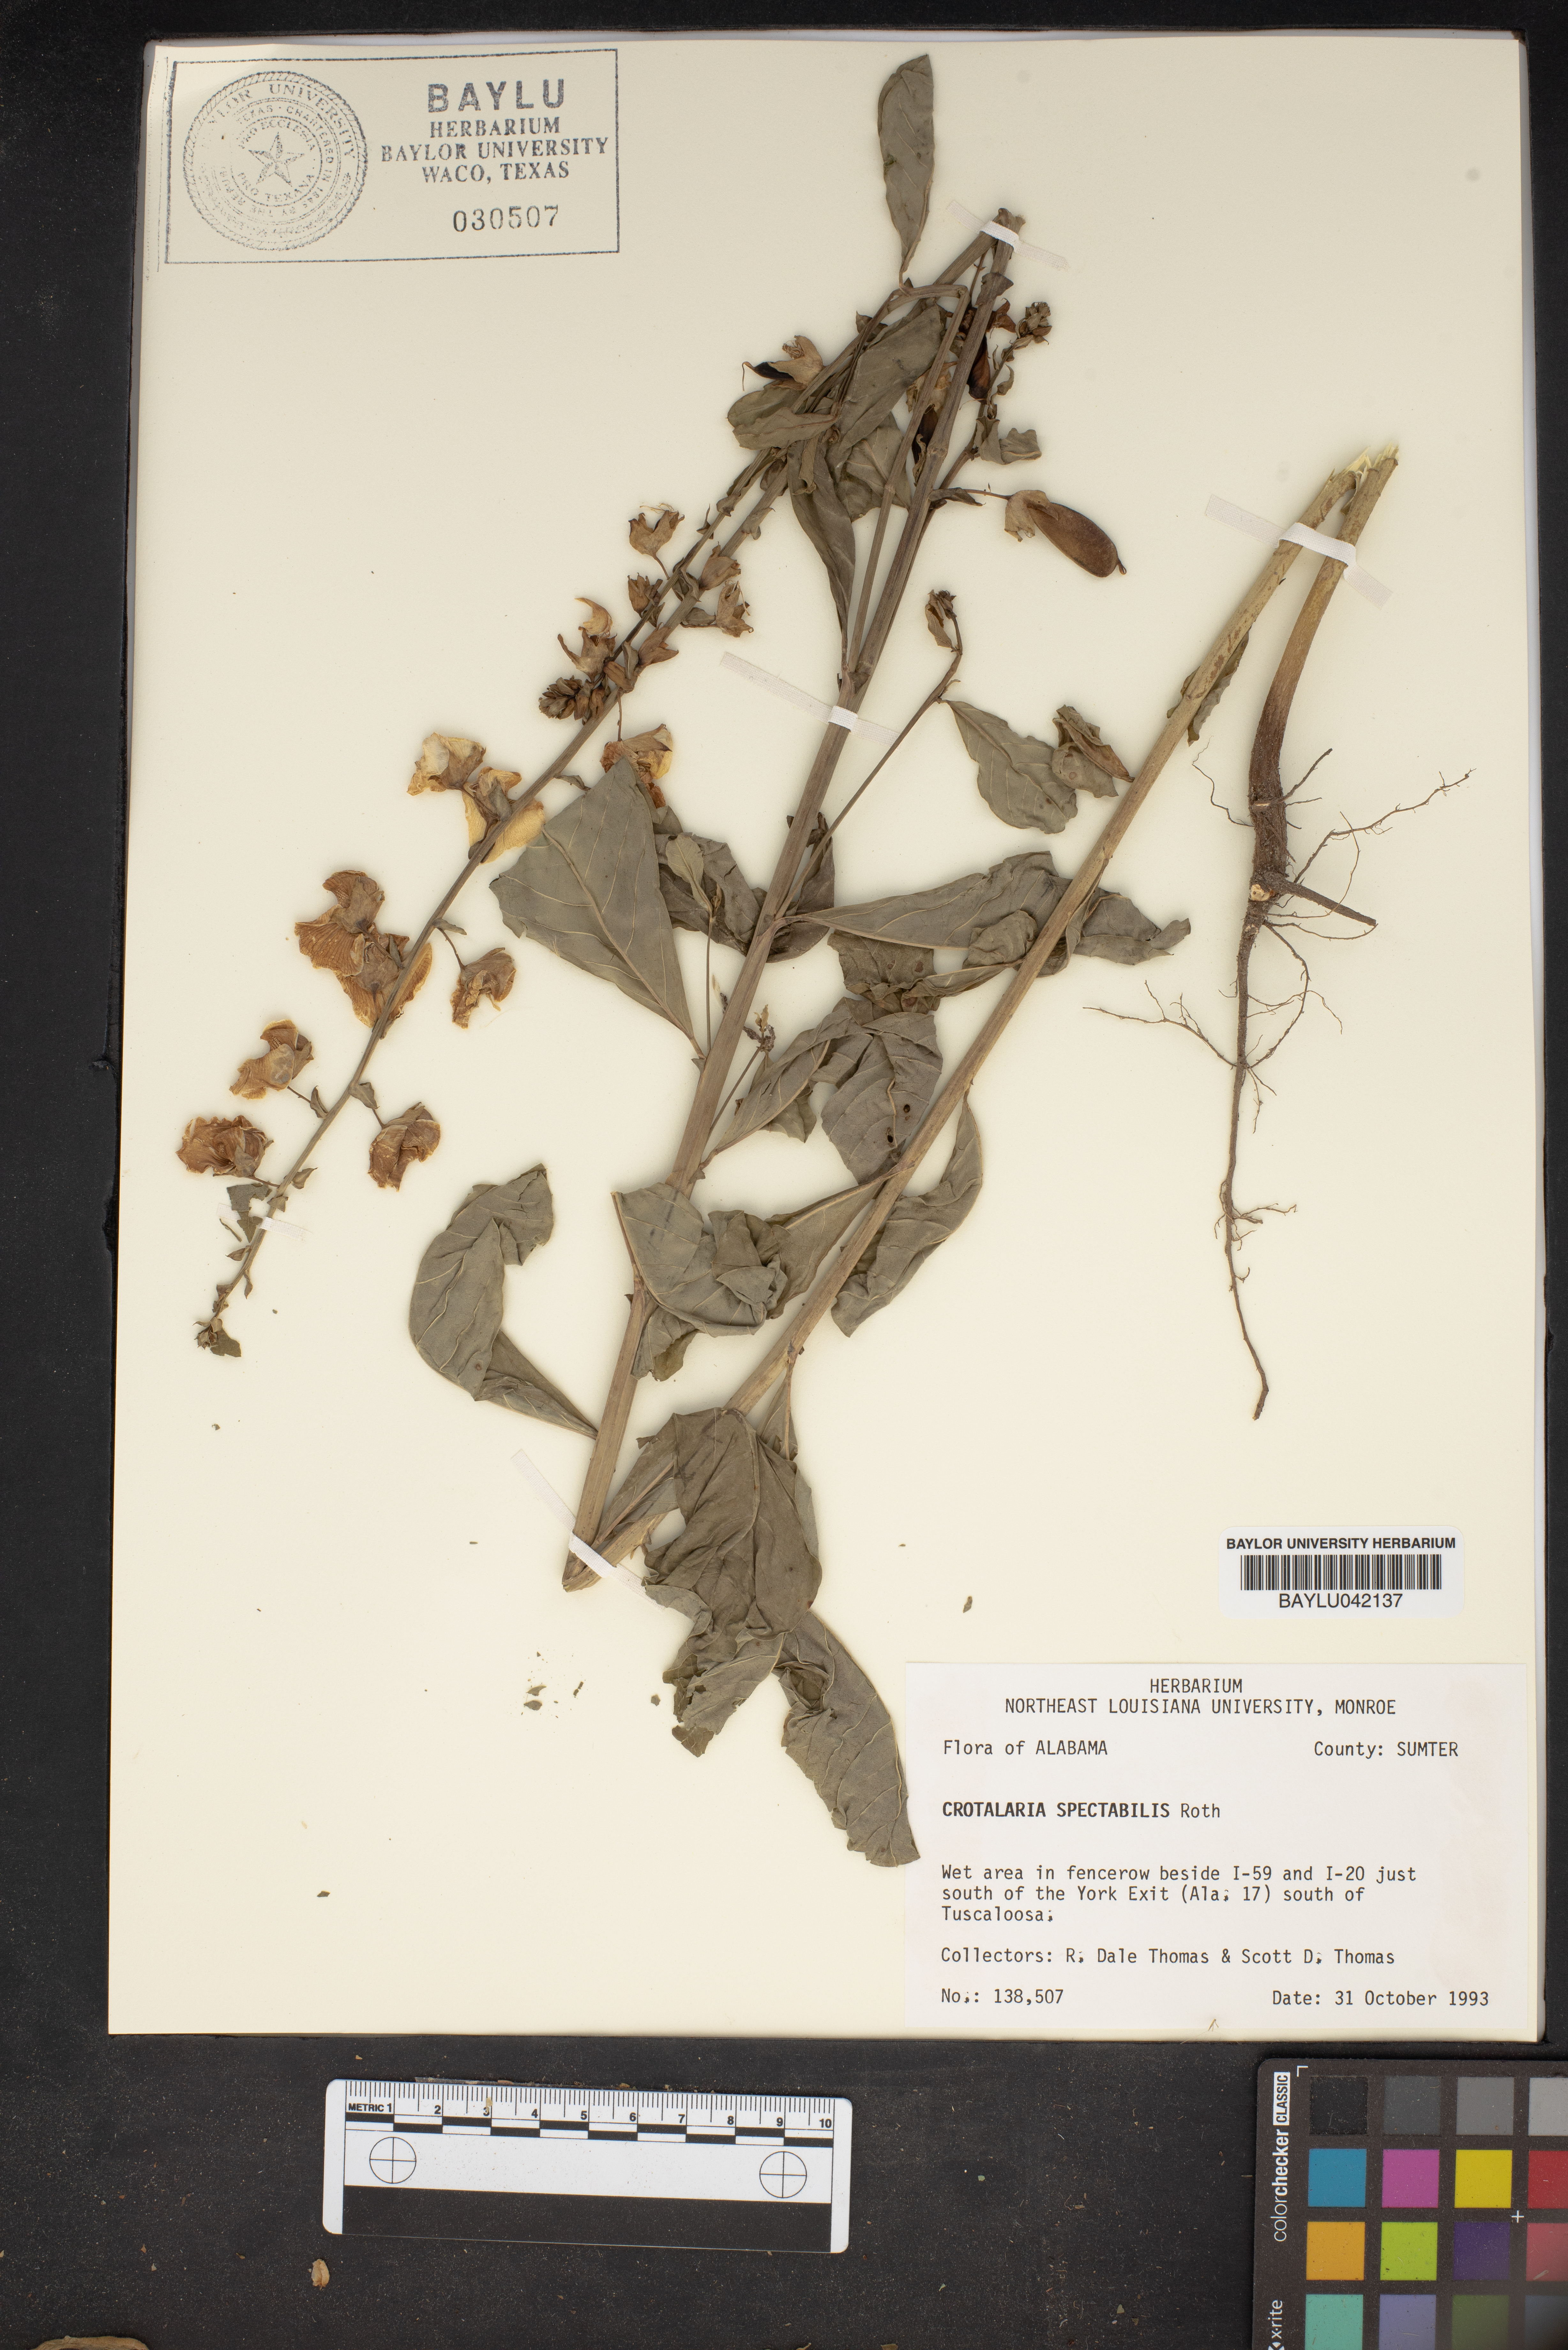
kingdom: Plantae
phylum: Tracheophyta
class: Magnoliopsida
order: Fabales
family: Fabaceae
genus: Crotalaria
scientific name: Crotalaria spectabilis
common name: Showy rattlebox
